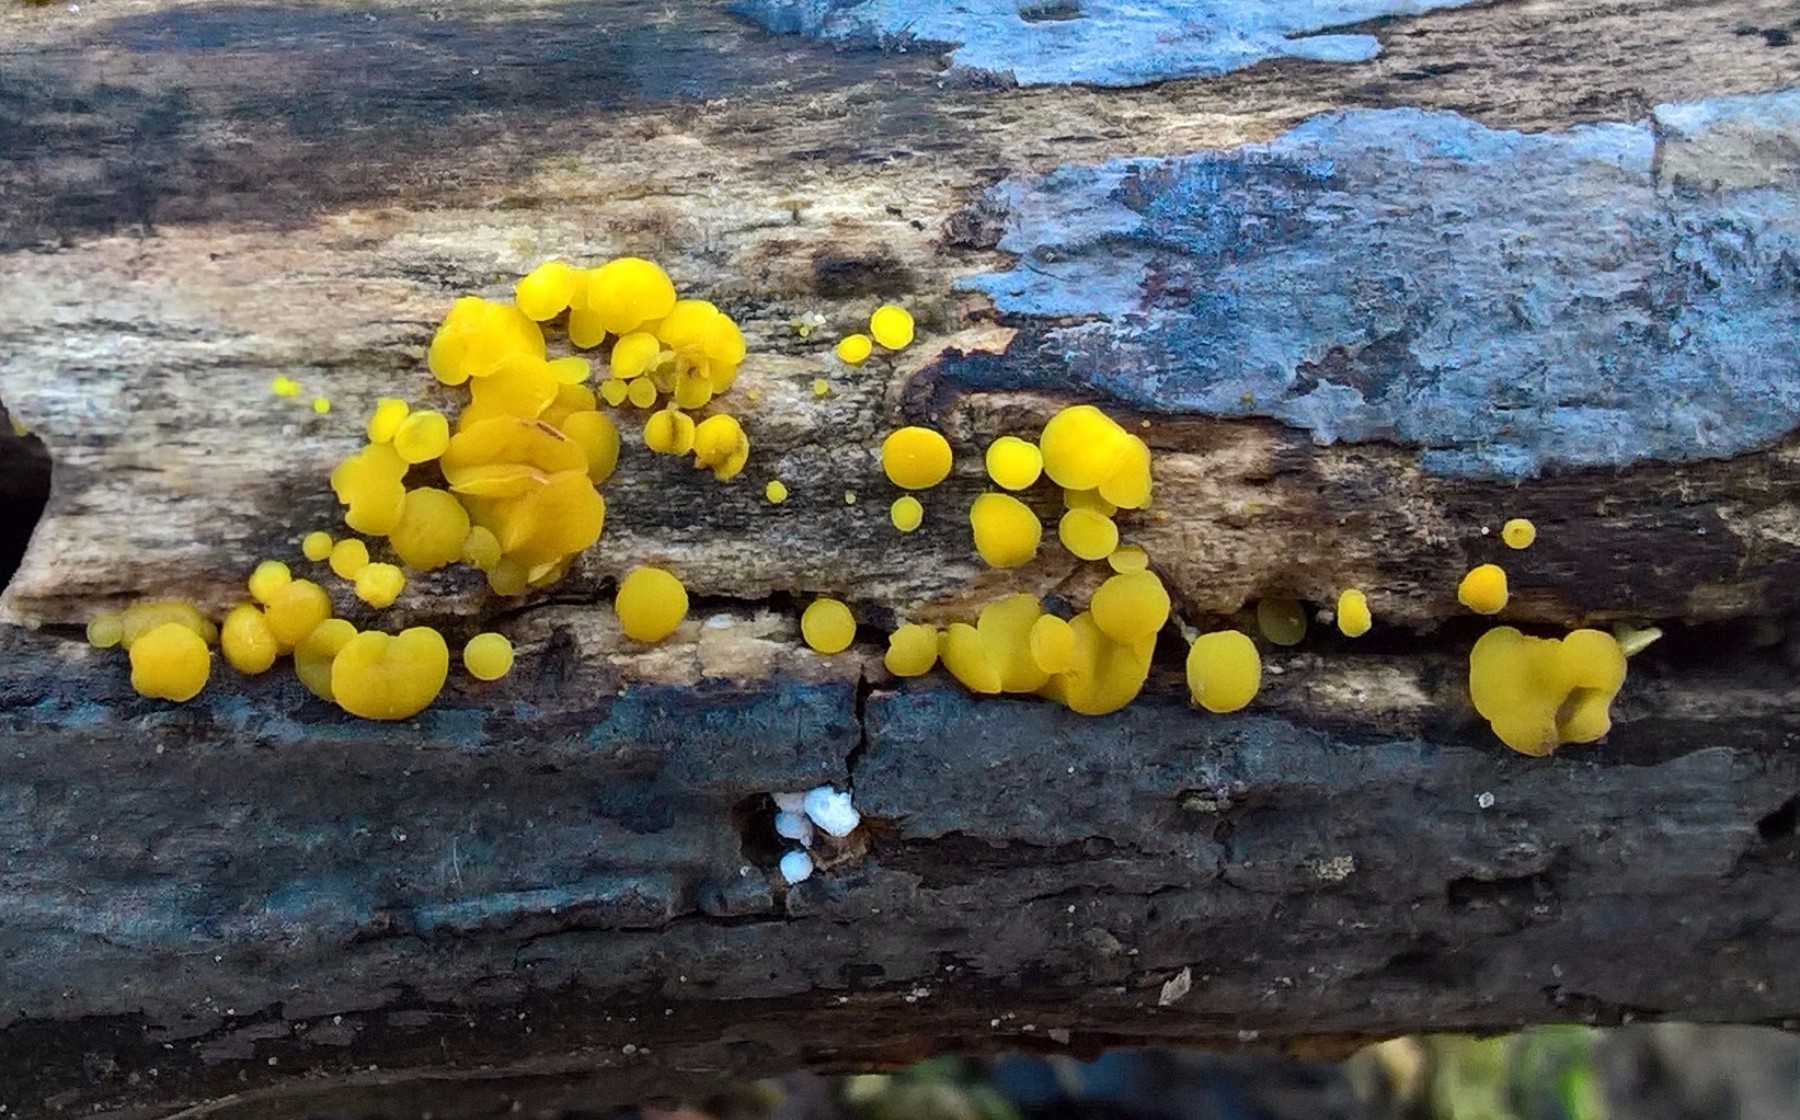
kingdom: Fungi
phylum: Ascomycota
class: Leotiomycetes
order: Helotiales
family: Pezizellaceae
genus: Calycina
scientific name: Calycina citrina
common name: almindelig gulskive
